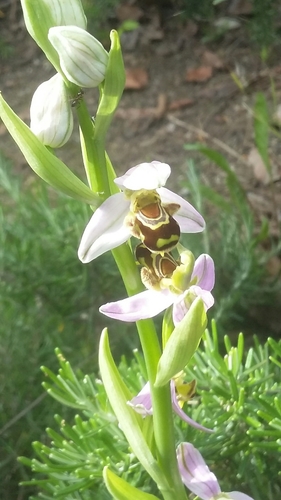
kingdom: Plantae
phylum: Tracheophyta
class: Liliopsida
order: Asparagales
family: Orchidaceae
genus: Ophrys
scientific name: Ophrys apifera
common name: Bee orchid
